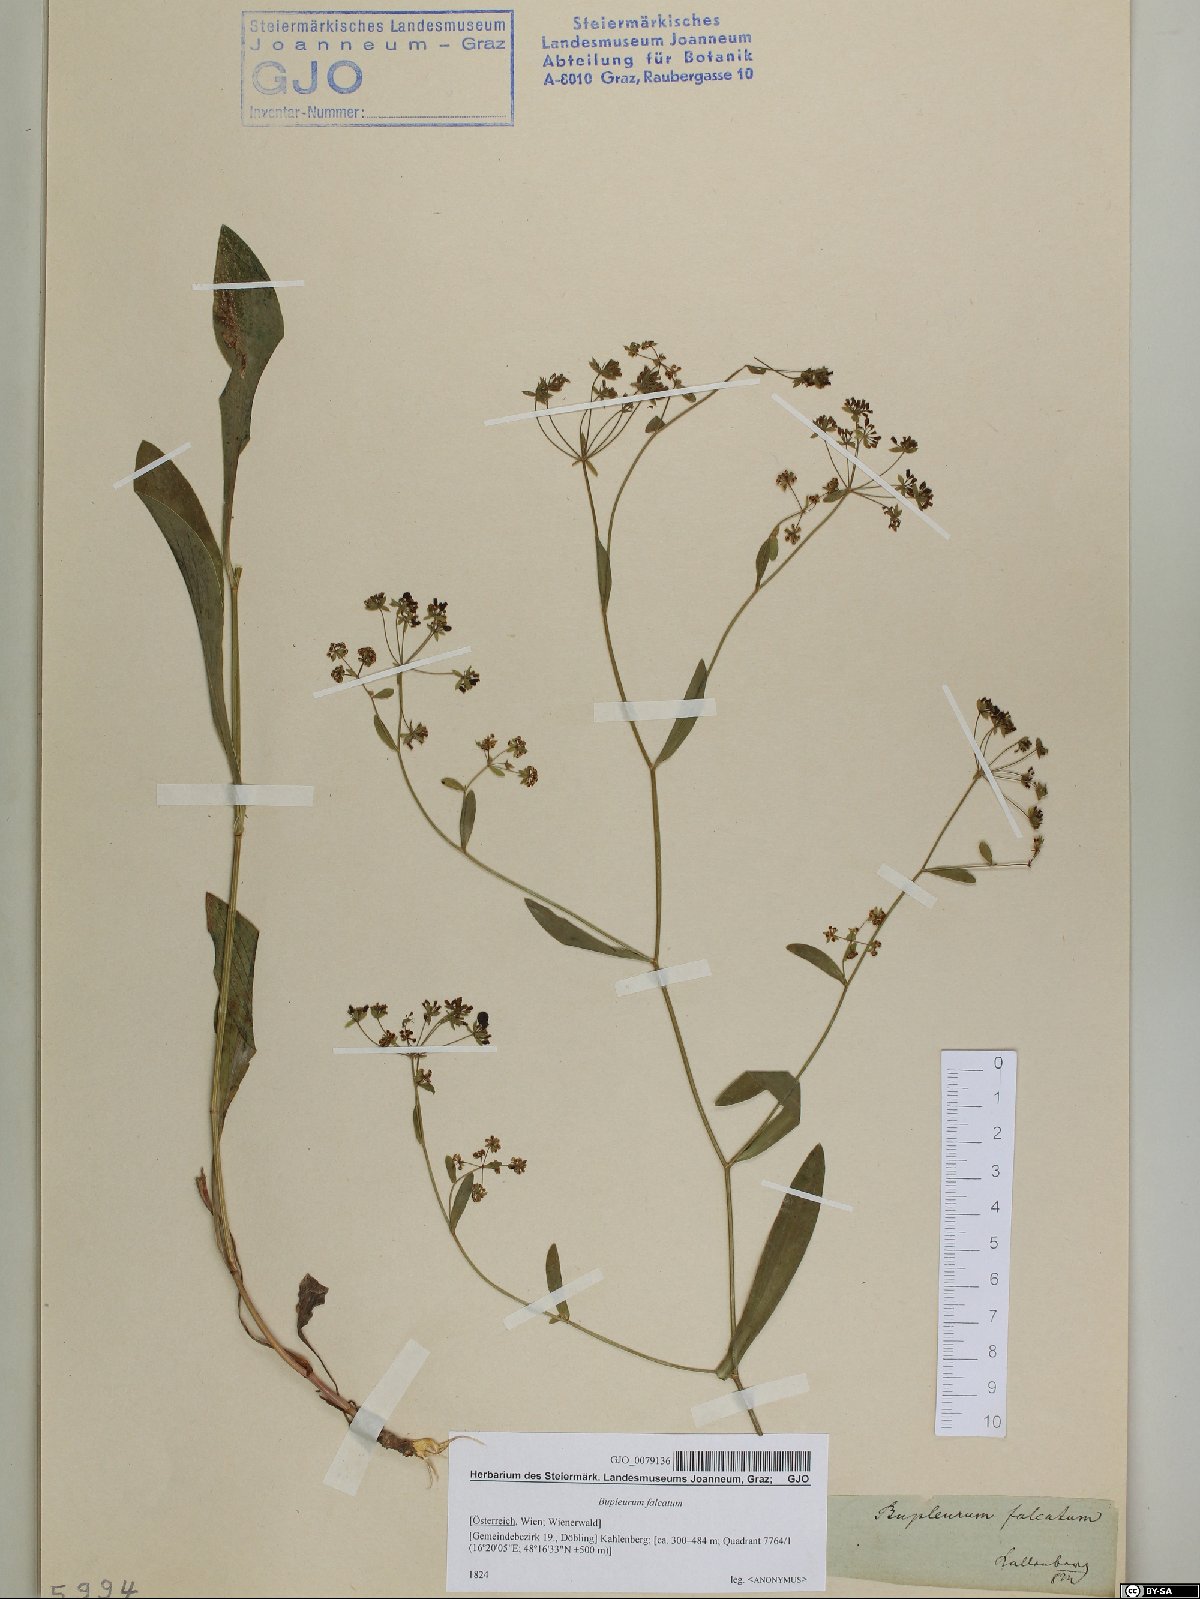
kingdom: Plantae
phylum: Tracheophyta
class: Magnoliopsida
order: Apiales
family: Apiaceae
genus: Bupleurum
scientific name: Bupleurum falcatum
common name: Sickle-leaved hare's-ear
